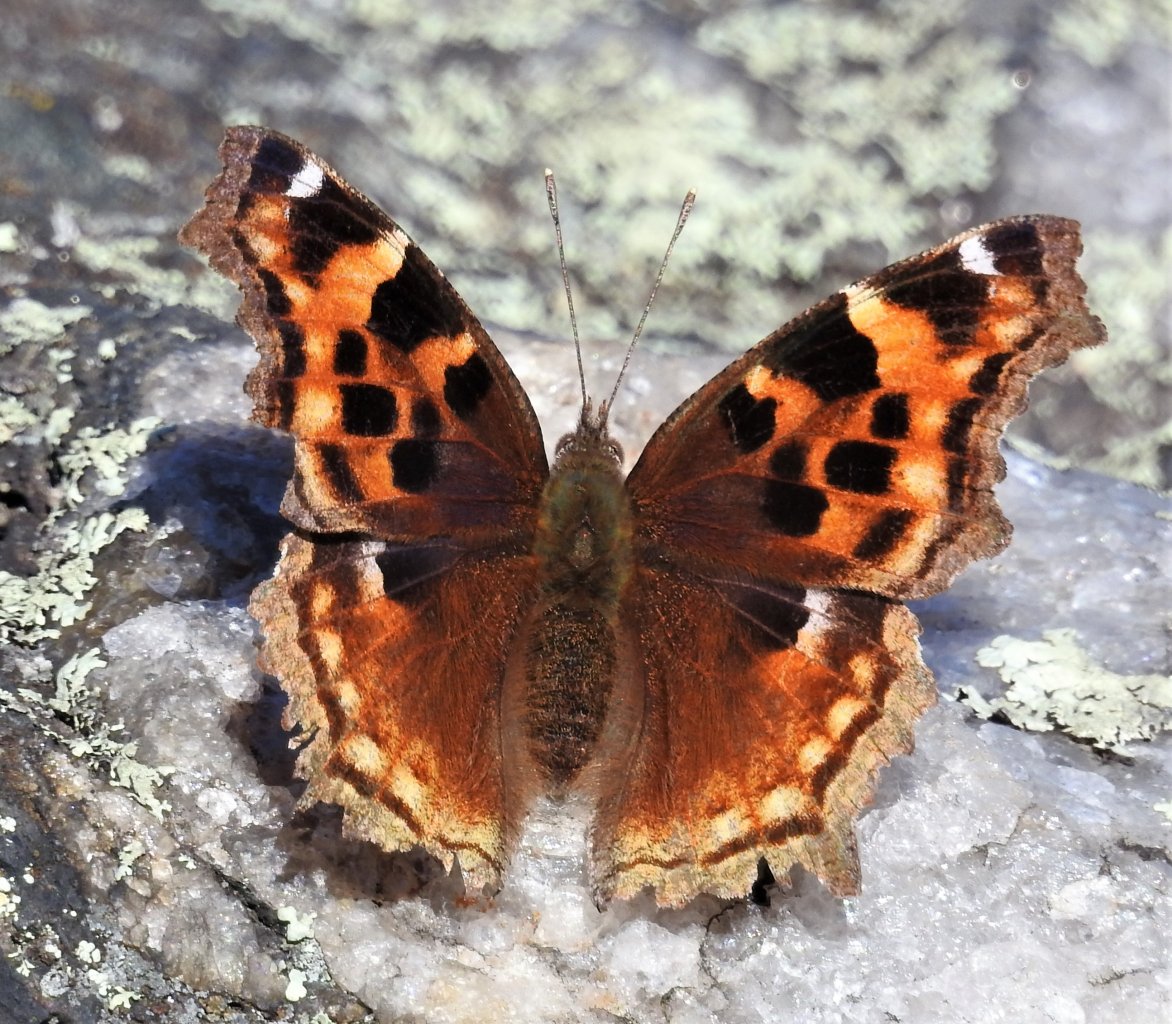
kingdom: Animalia
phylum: Arthropoda
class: Insecta
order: Lepidoptera
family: Nymphalidae
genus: Polygonia
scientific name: Polygonia vaualbum
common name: Compton Tortoiseshell
